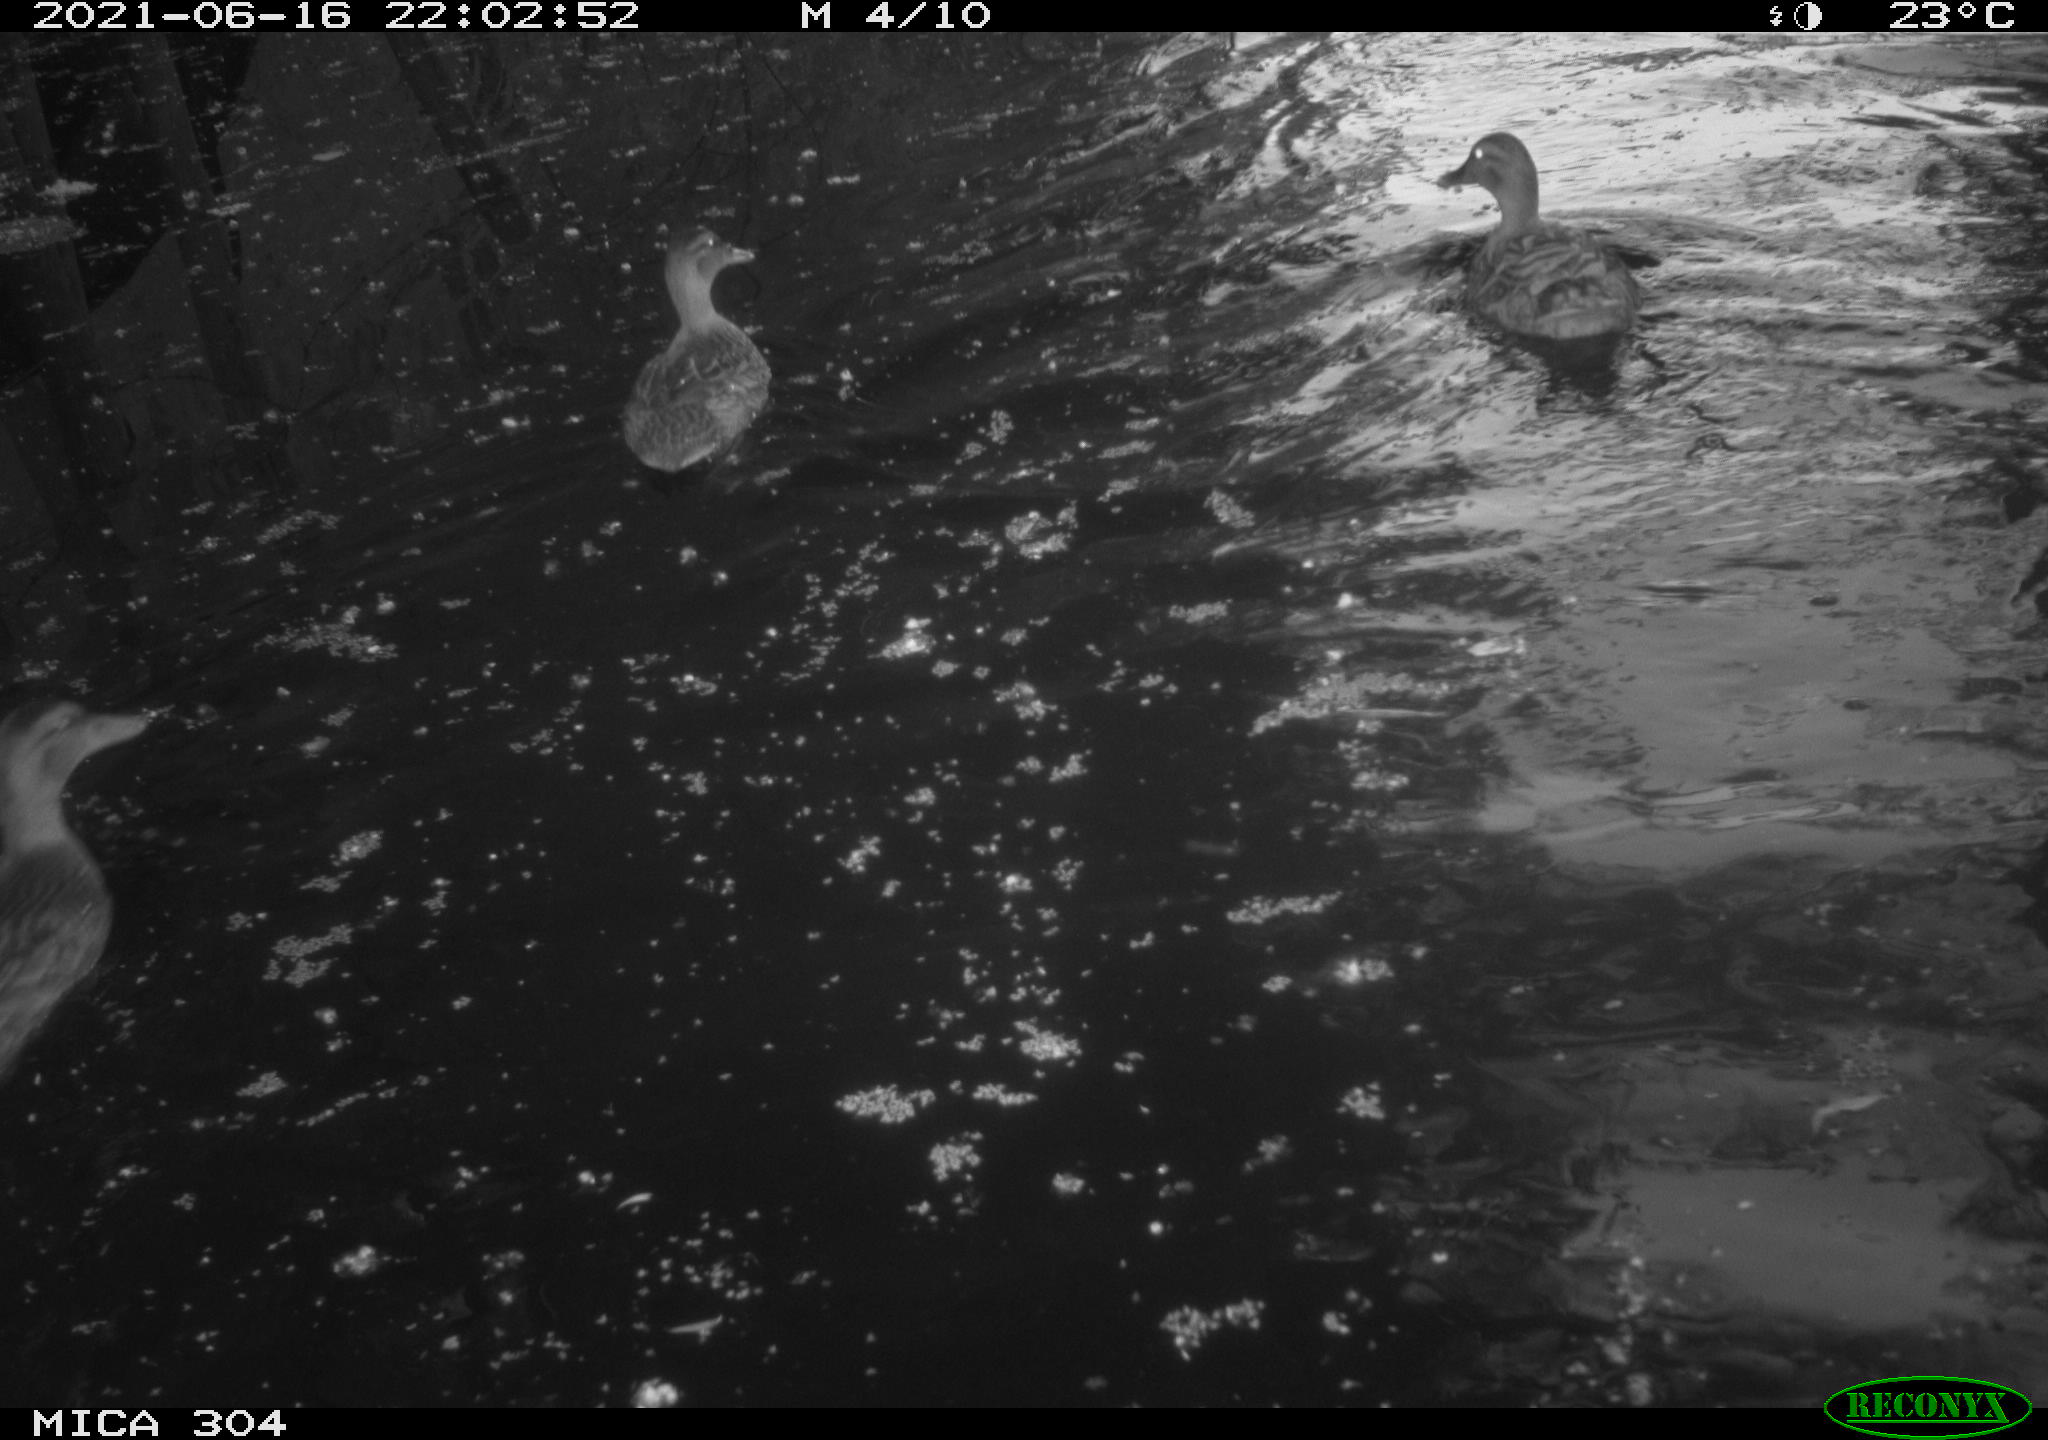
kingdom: Animalia
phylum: Chordata
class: Aves
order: Anseriformes
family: Anatidae
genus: Mareca
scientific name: Mareca strepera
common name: Gadwall
